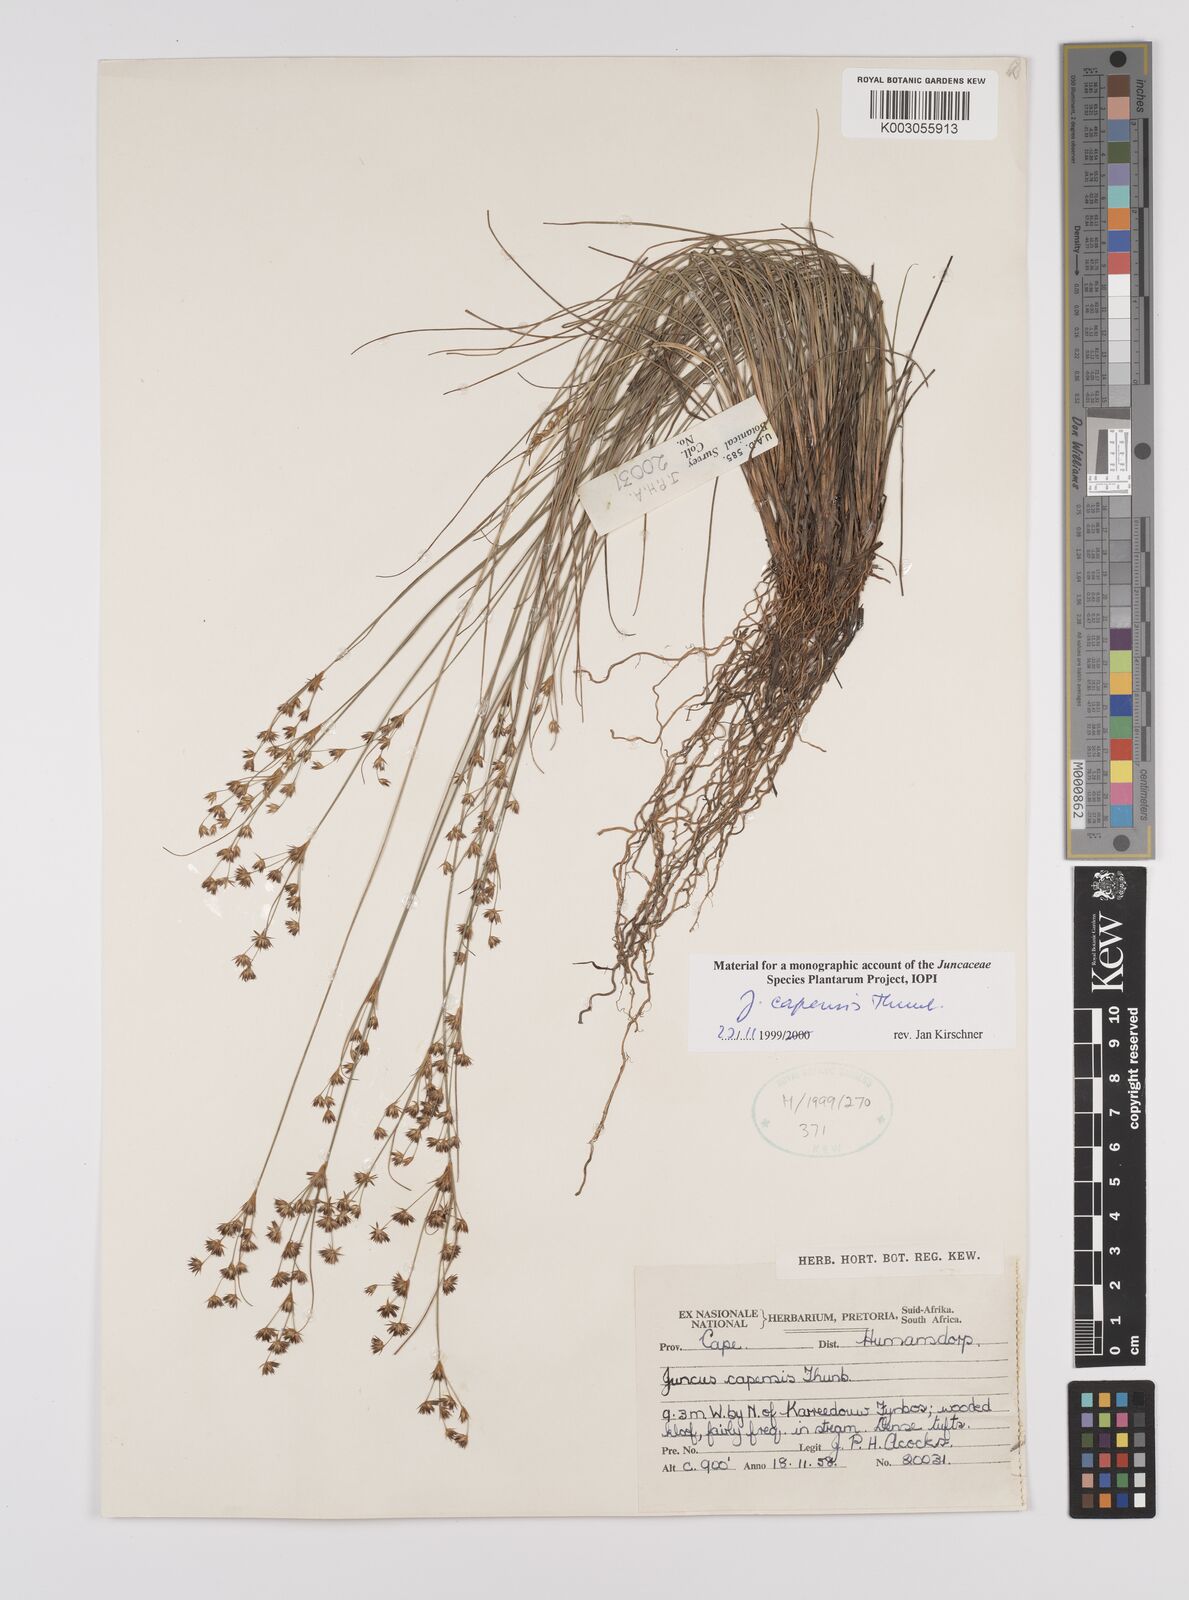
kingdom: Plantae
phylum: Tracheophyta
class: Liliopsida
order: Poales
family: Juncaceae
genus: Juncus
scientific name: Juncus capensis
